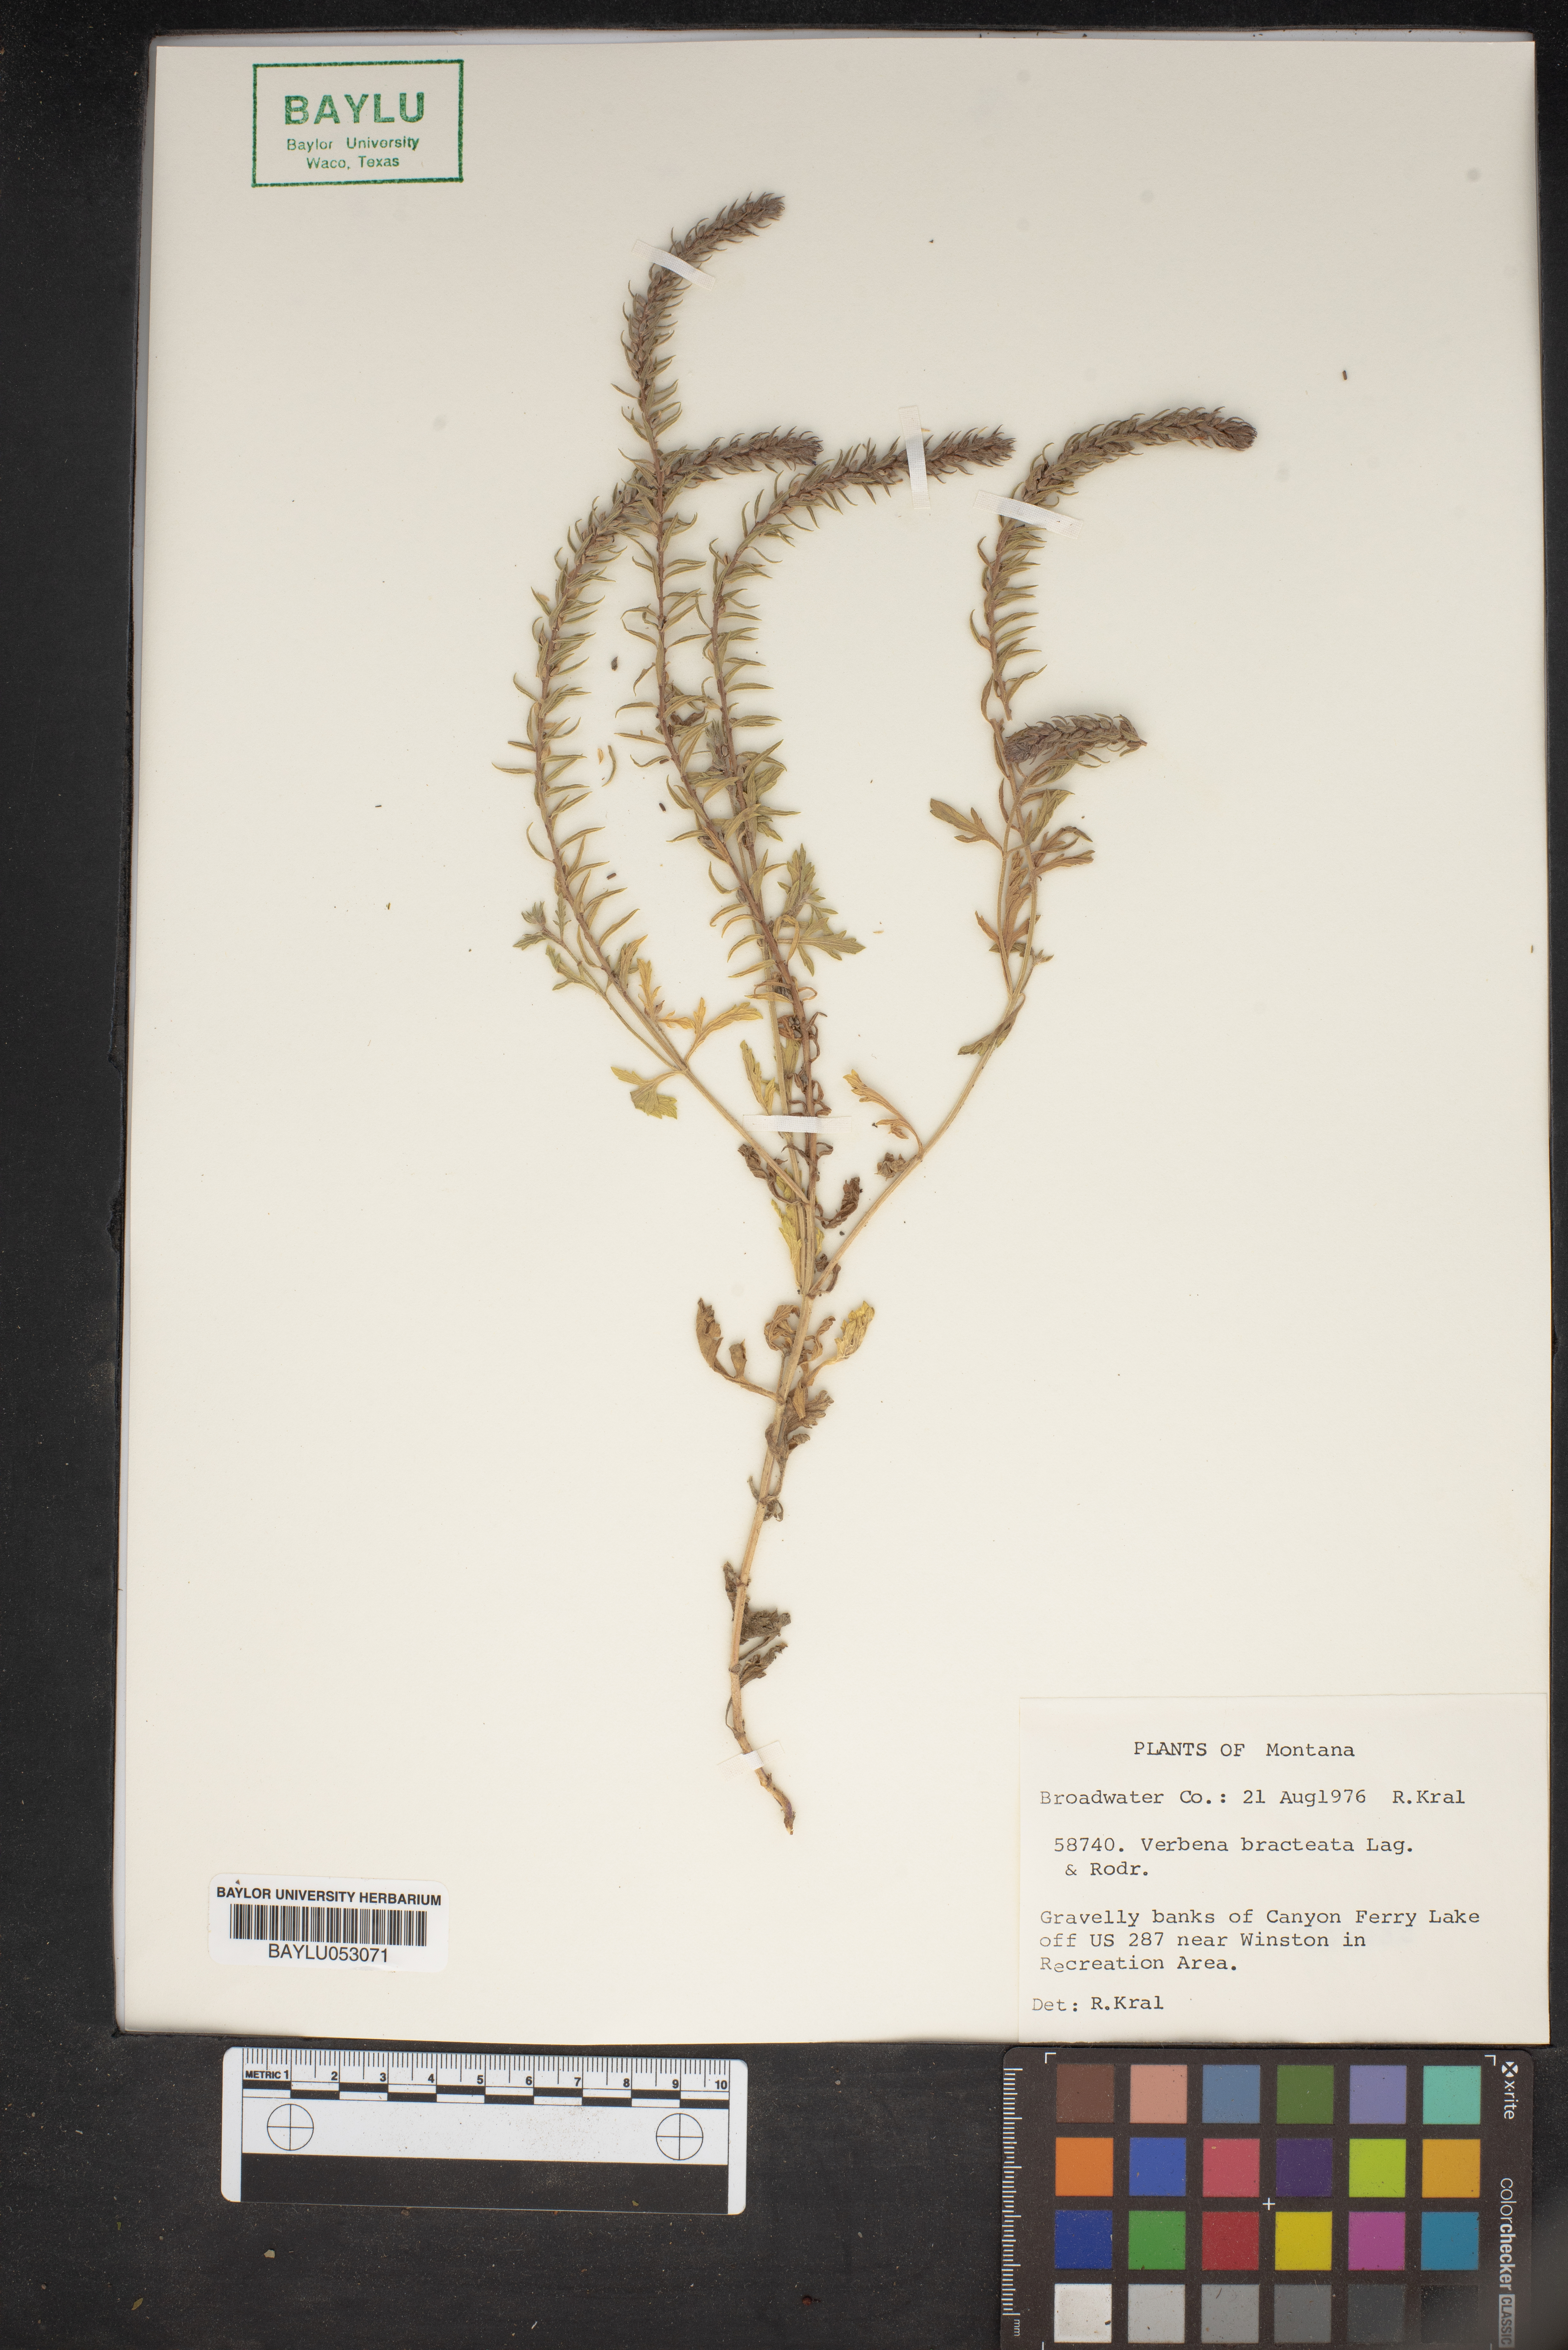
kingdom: Plantae
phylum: Tracheophyta
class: Magnoliopsida
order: Lamiales
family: Verbenaceae
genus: Verbena
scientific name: Verbena bracteata
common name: Bracted vervain
